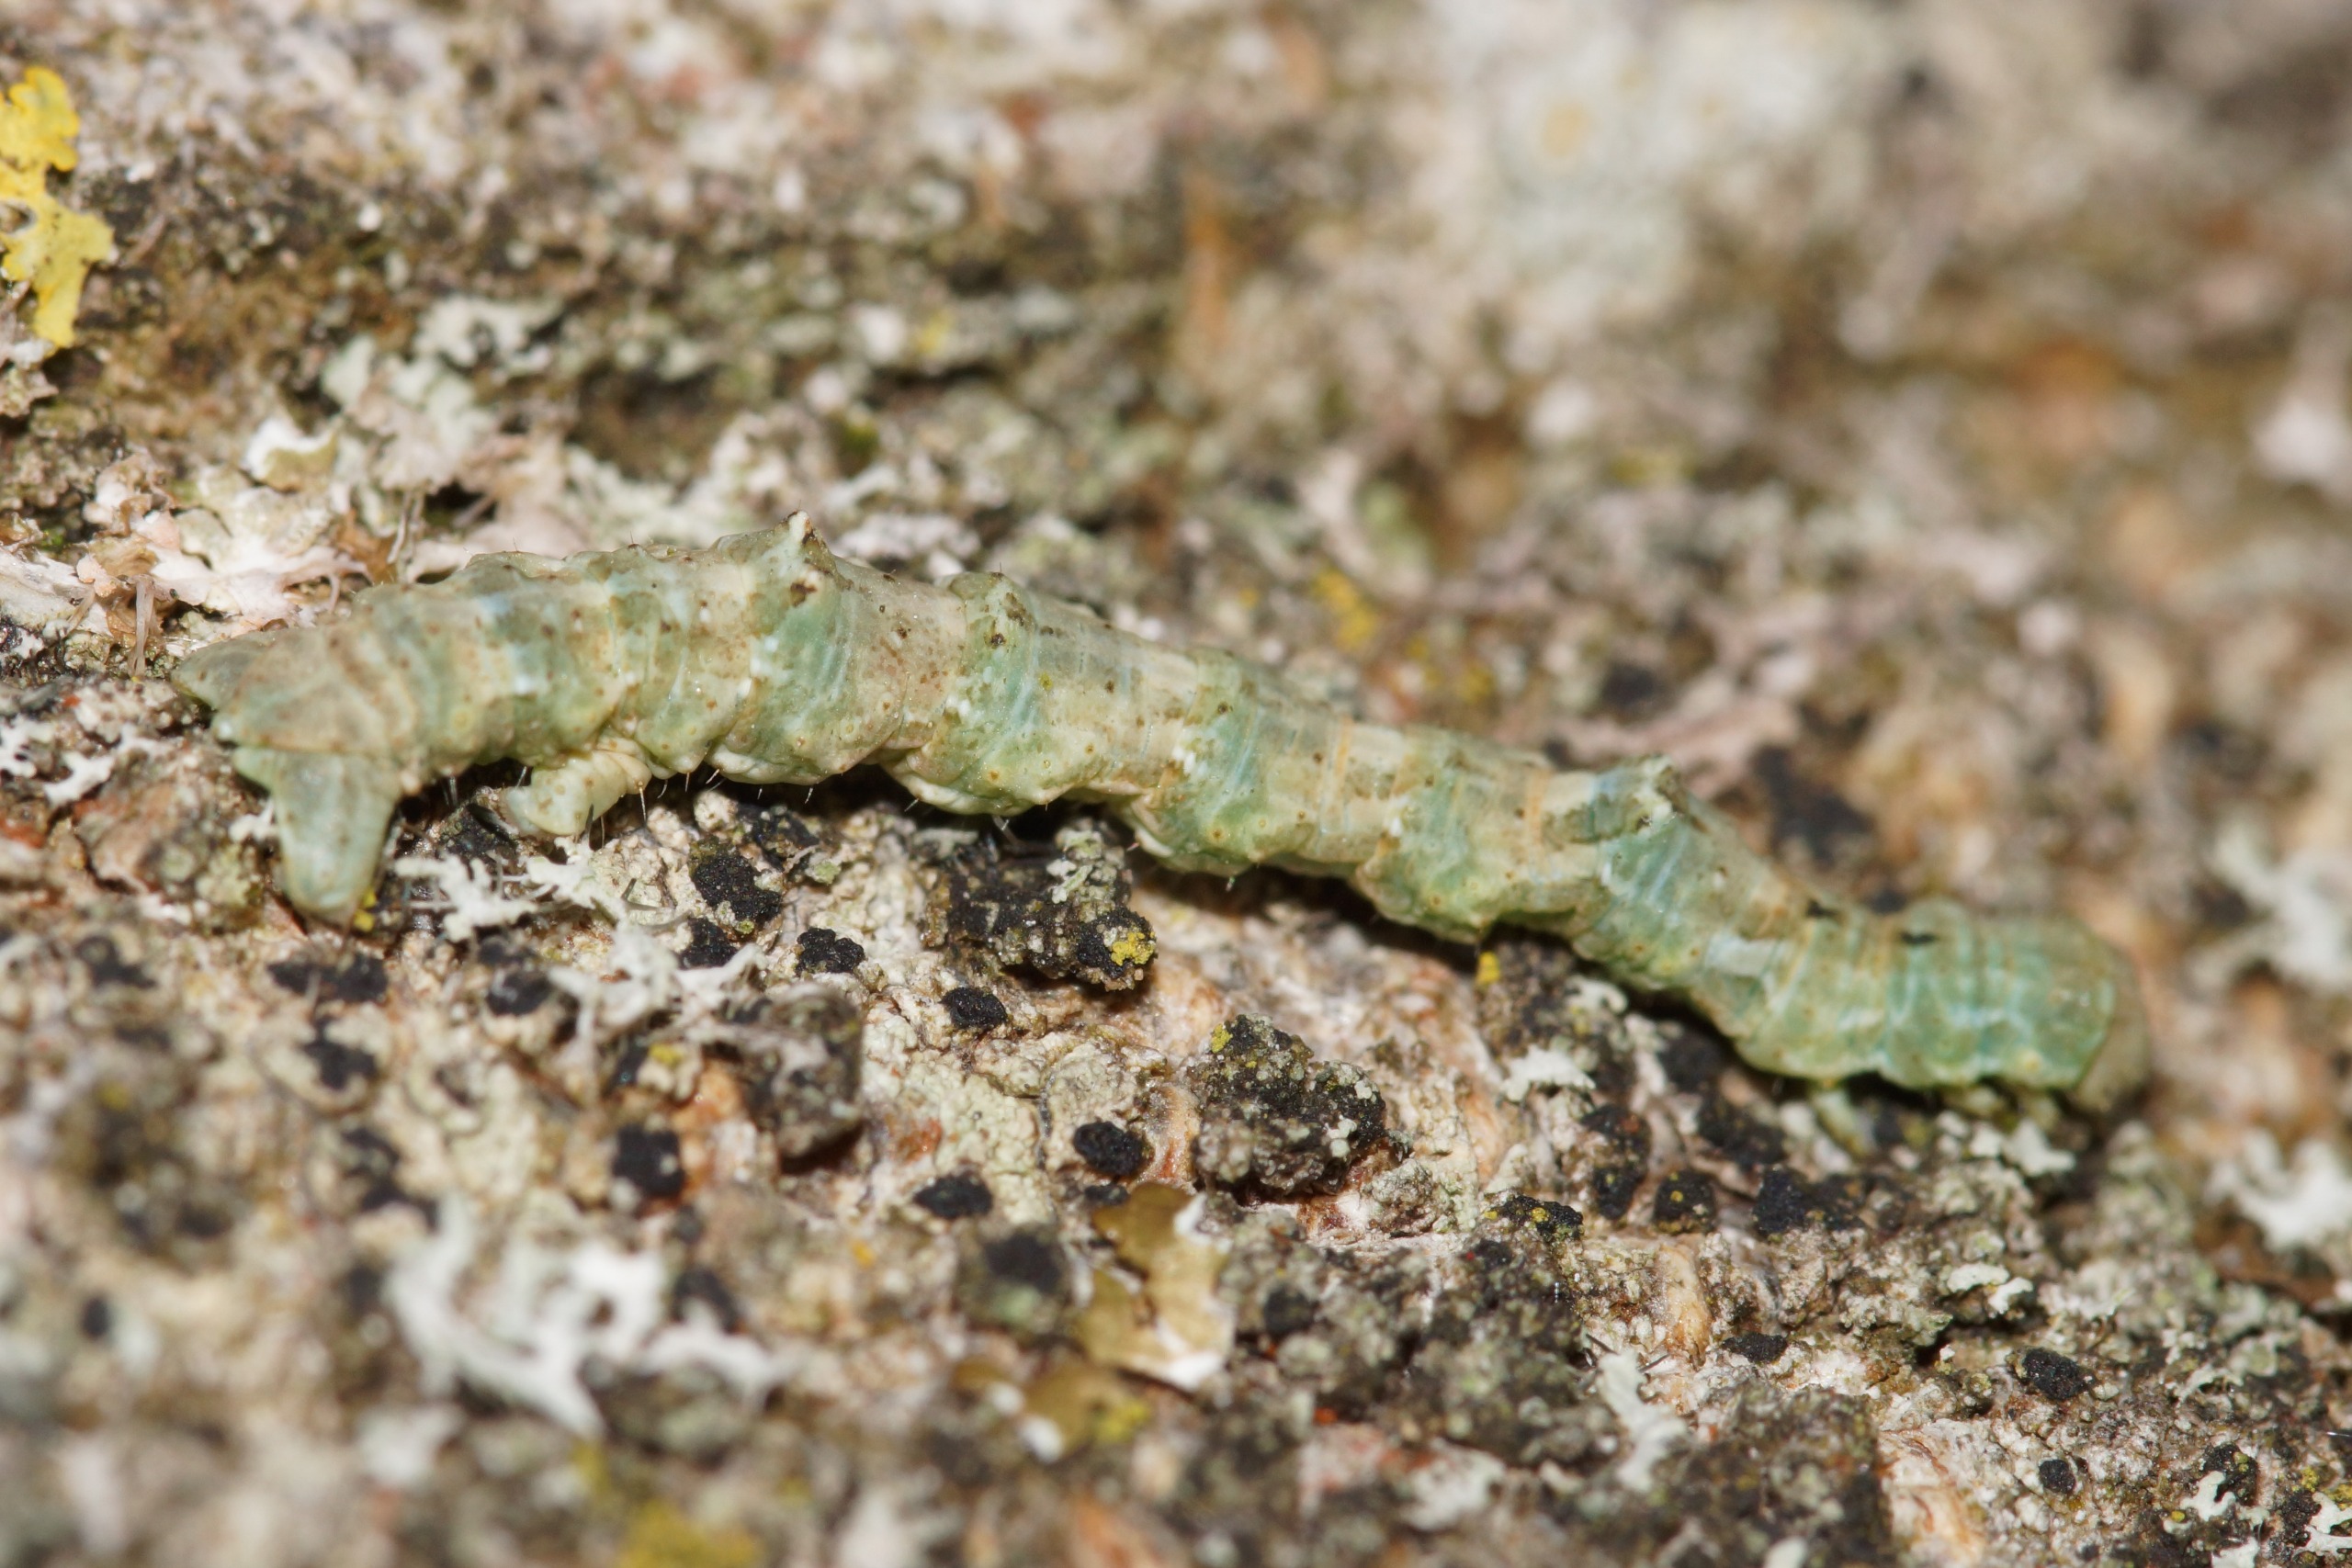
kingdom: Animalia
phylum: Arthropoda
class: Insecta
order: Lepidoptera
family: Geometridae
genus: Cleorodes
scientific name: Cleorodes lichenaria
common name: Lille lavmåler
